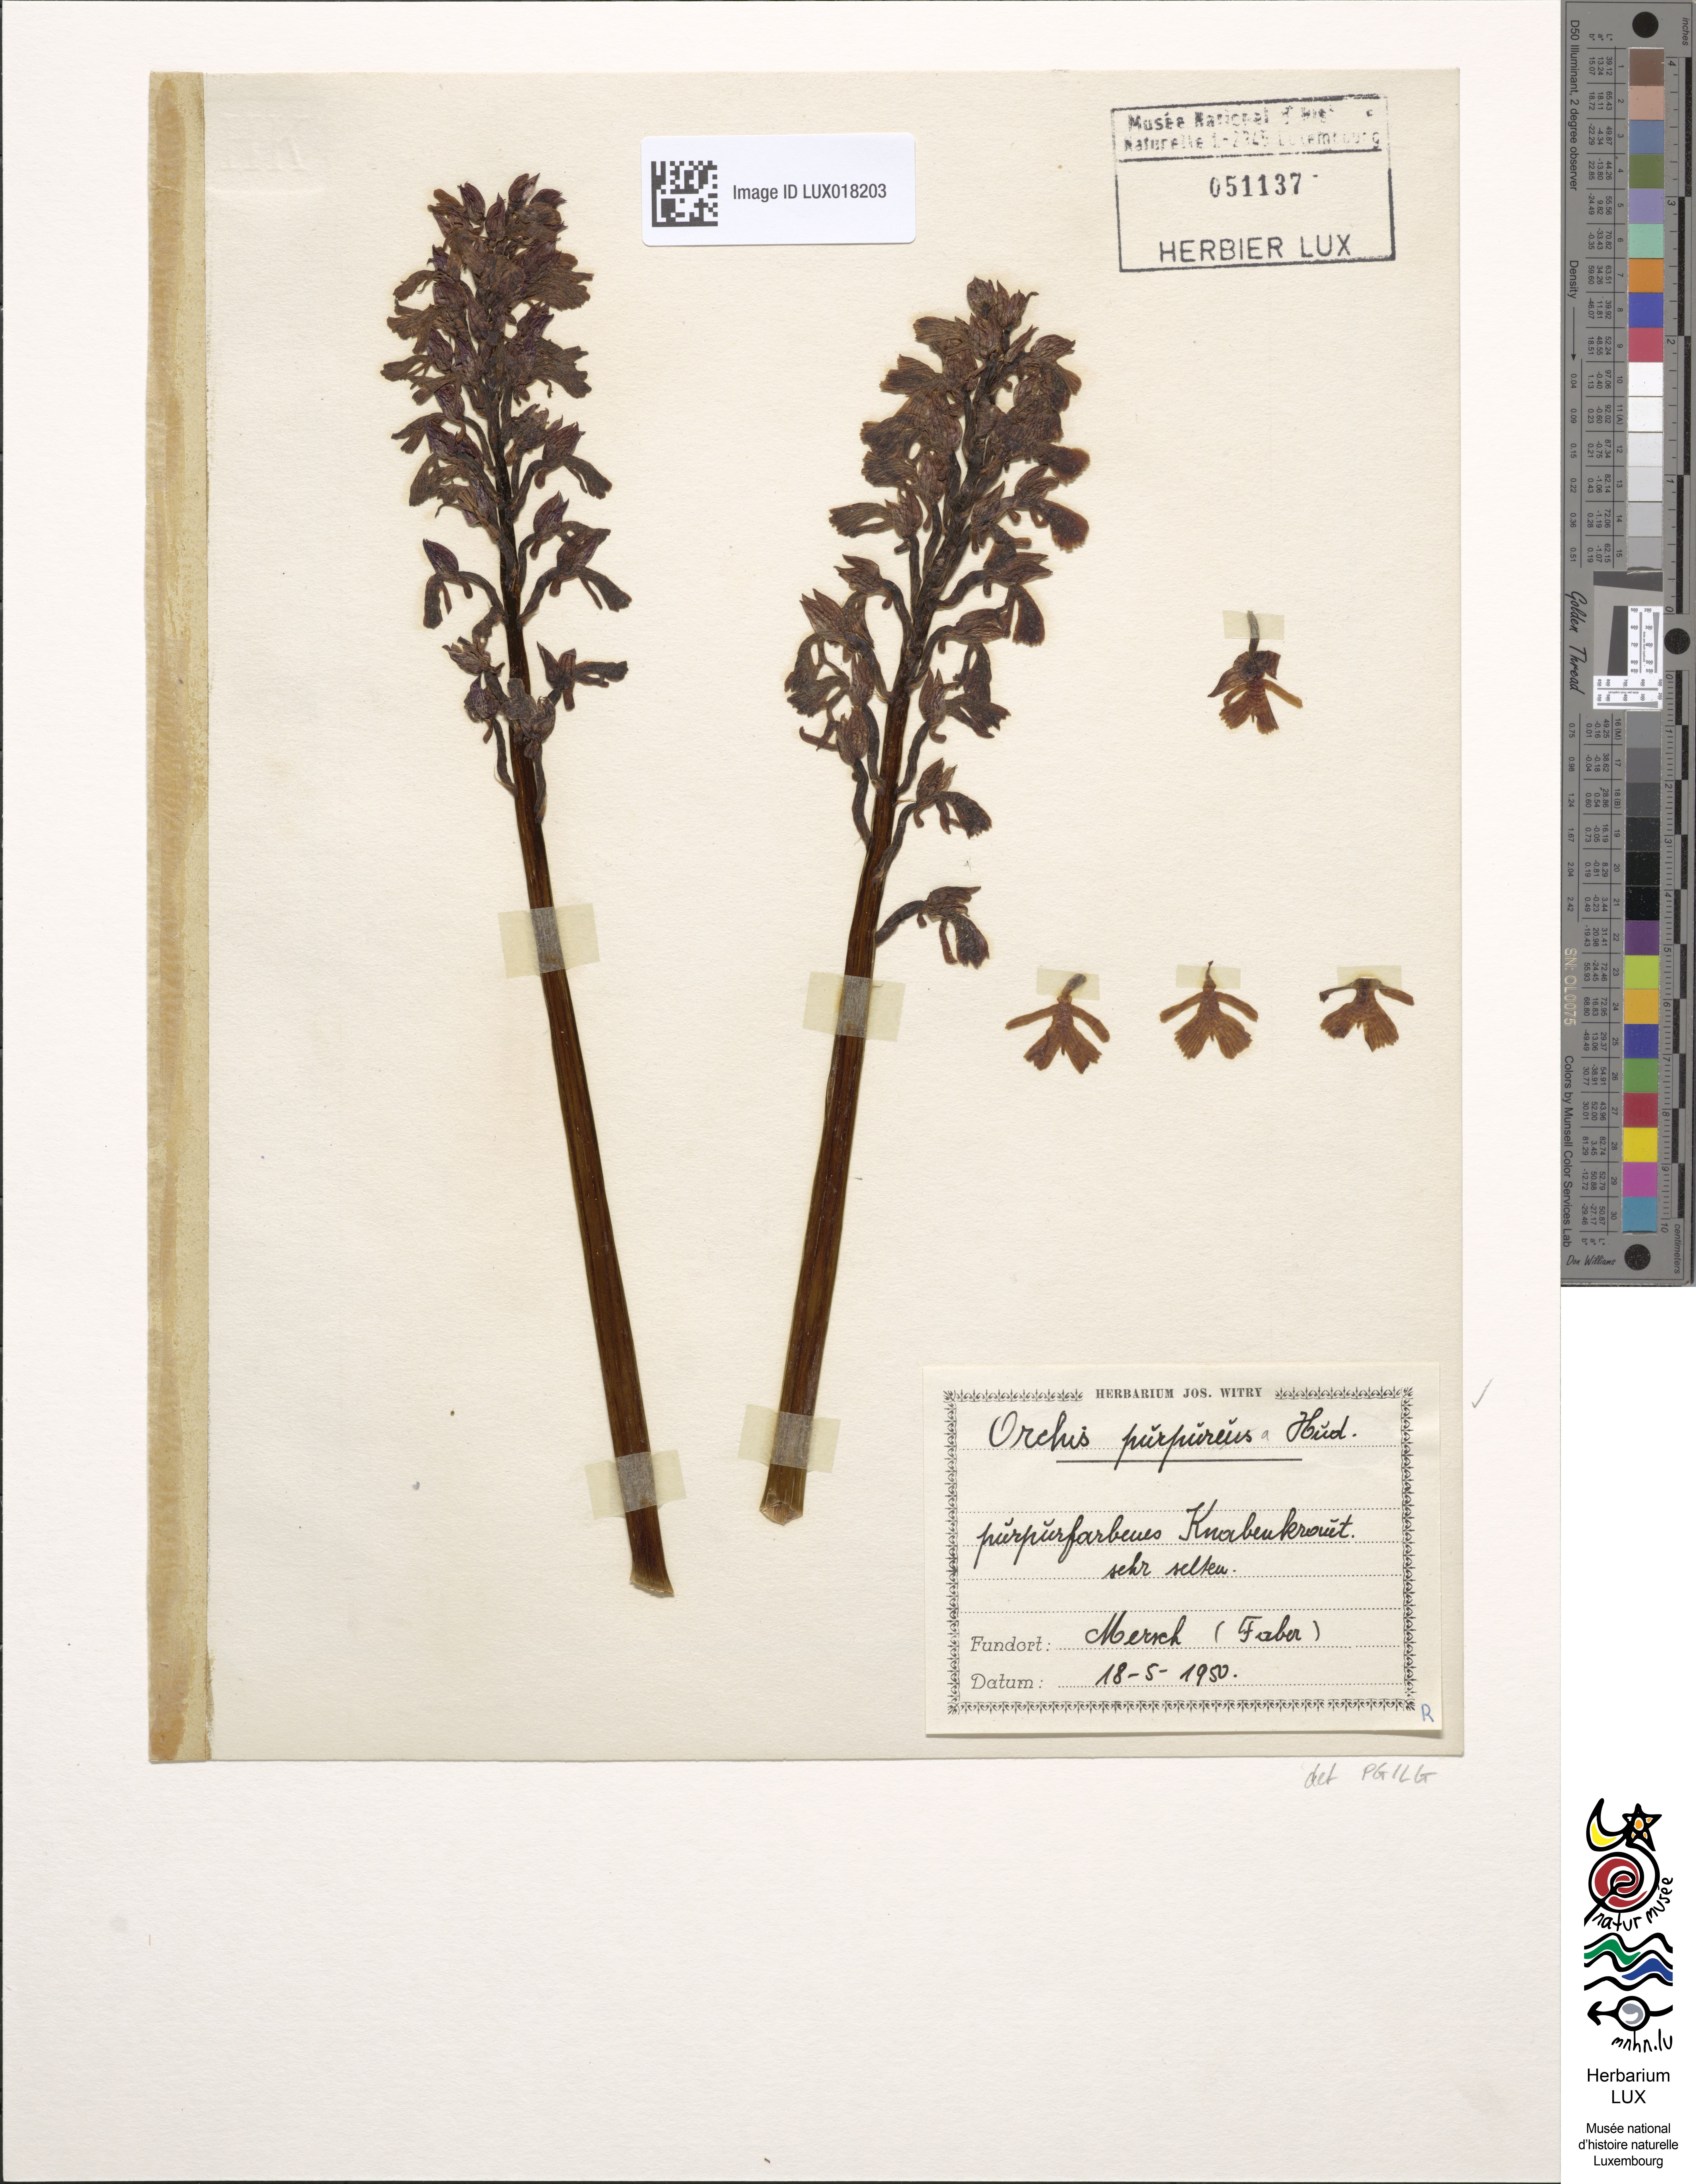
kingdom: Plantae
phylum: Tracheophyta
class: Liliopsida
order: Asparagales
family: Orchidaceae
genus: Orchis
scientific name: Orchis purpurea
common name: Lady orchid
